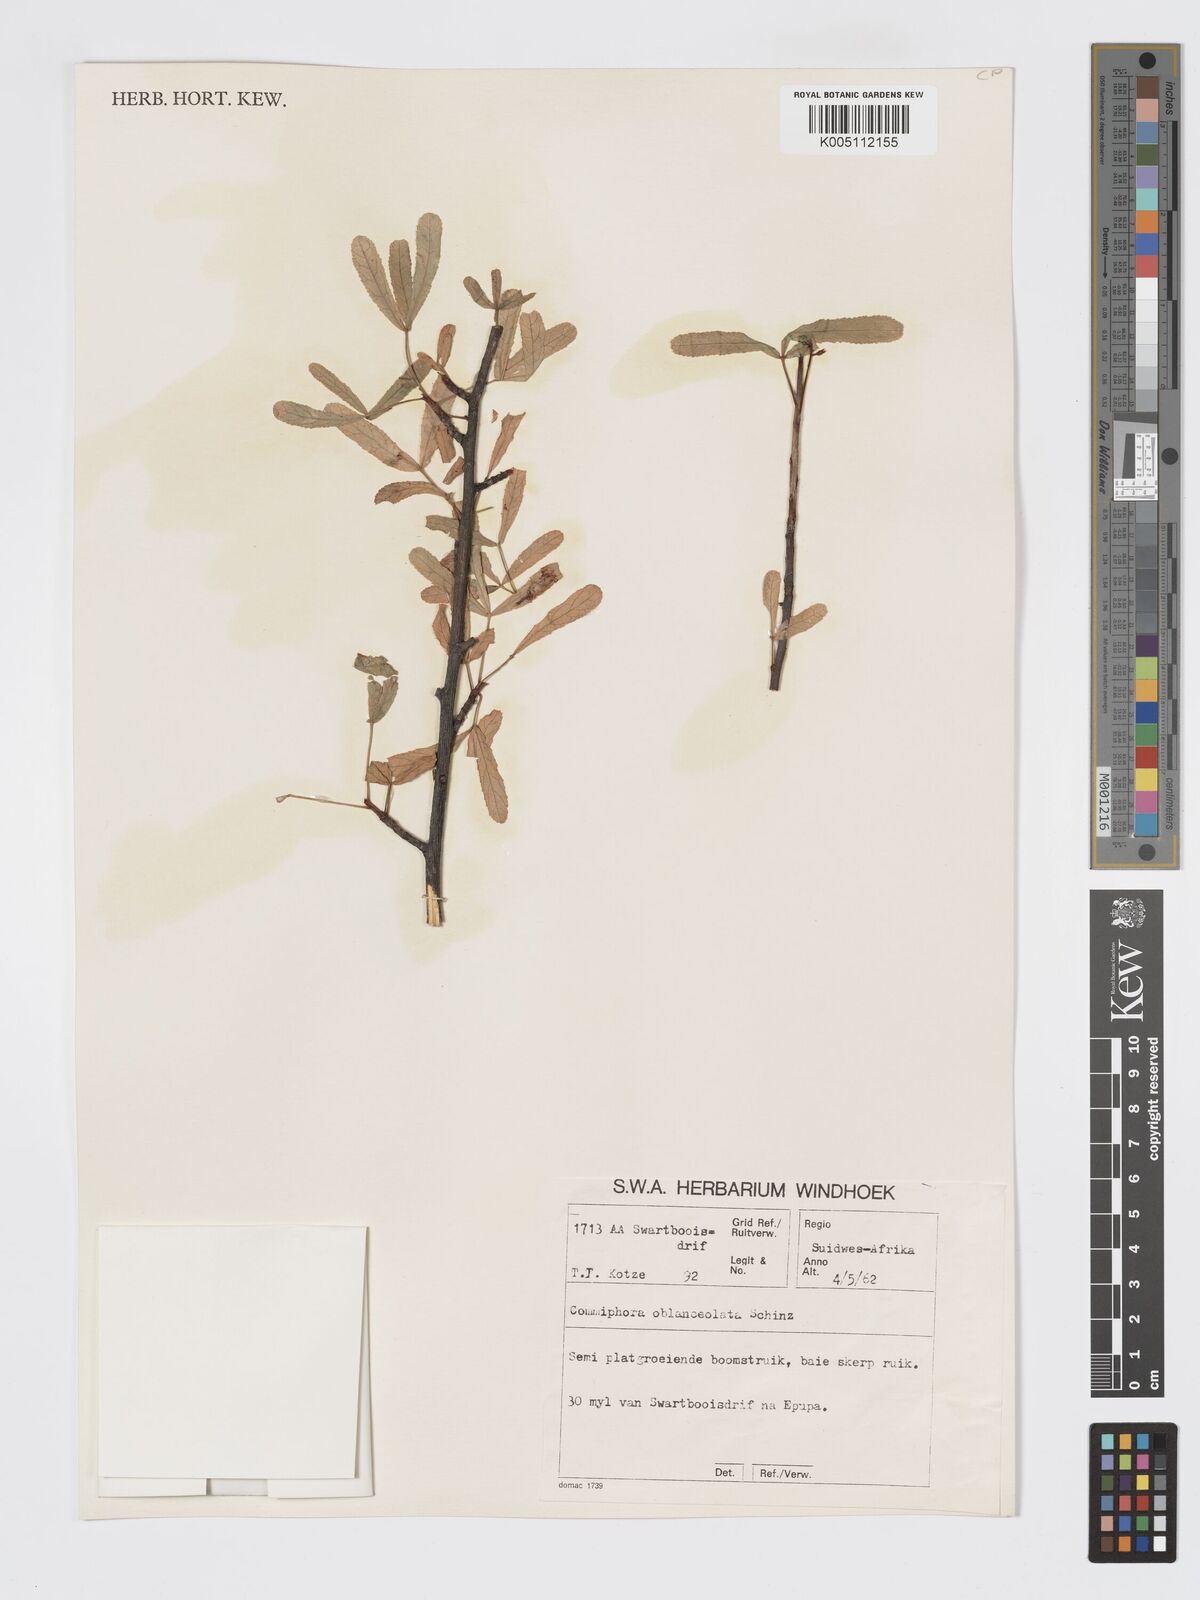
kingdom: Plantae
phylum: Tracheophyta
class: Magnoliopsida
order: Sapindales
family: Burseraceae
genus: Commiphora
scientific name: Commiphora oblanceolata
